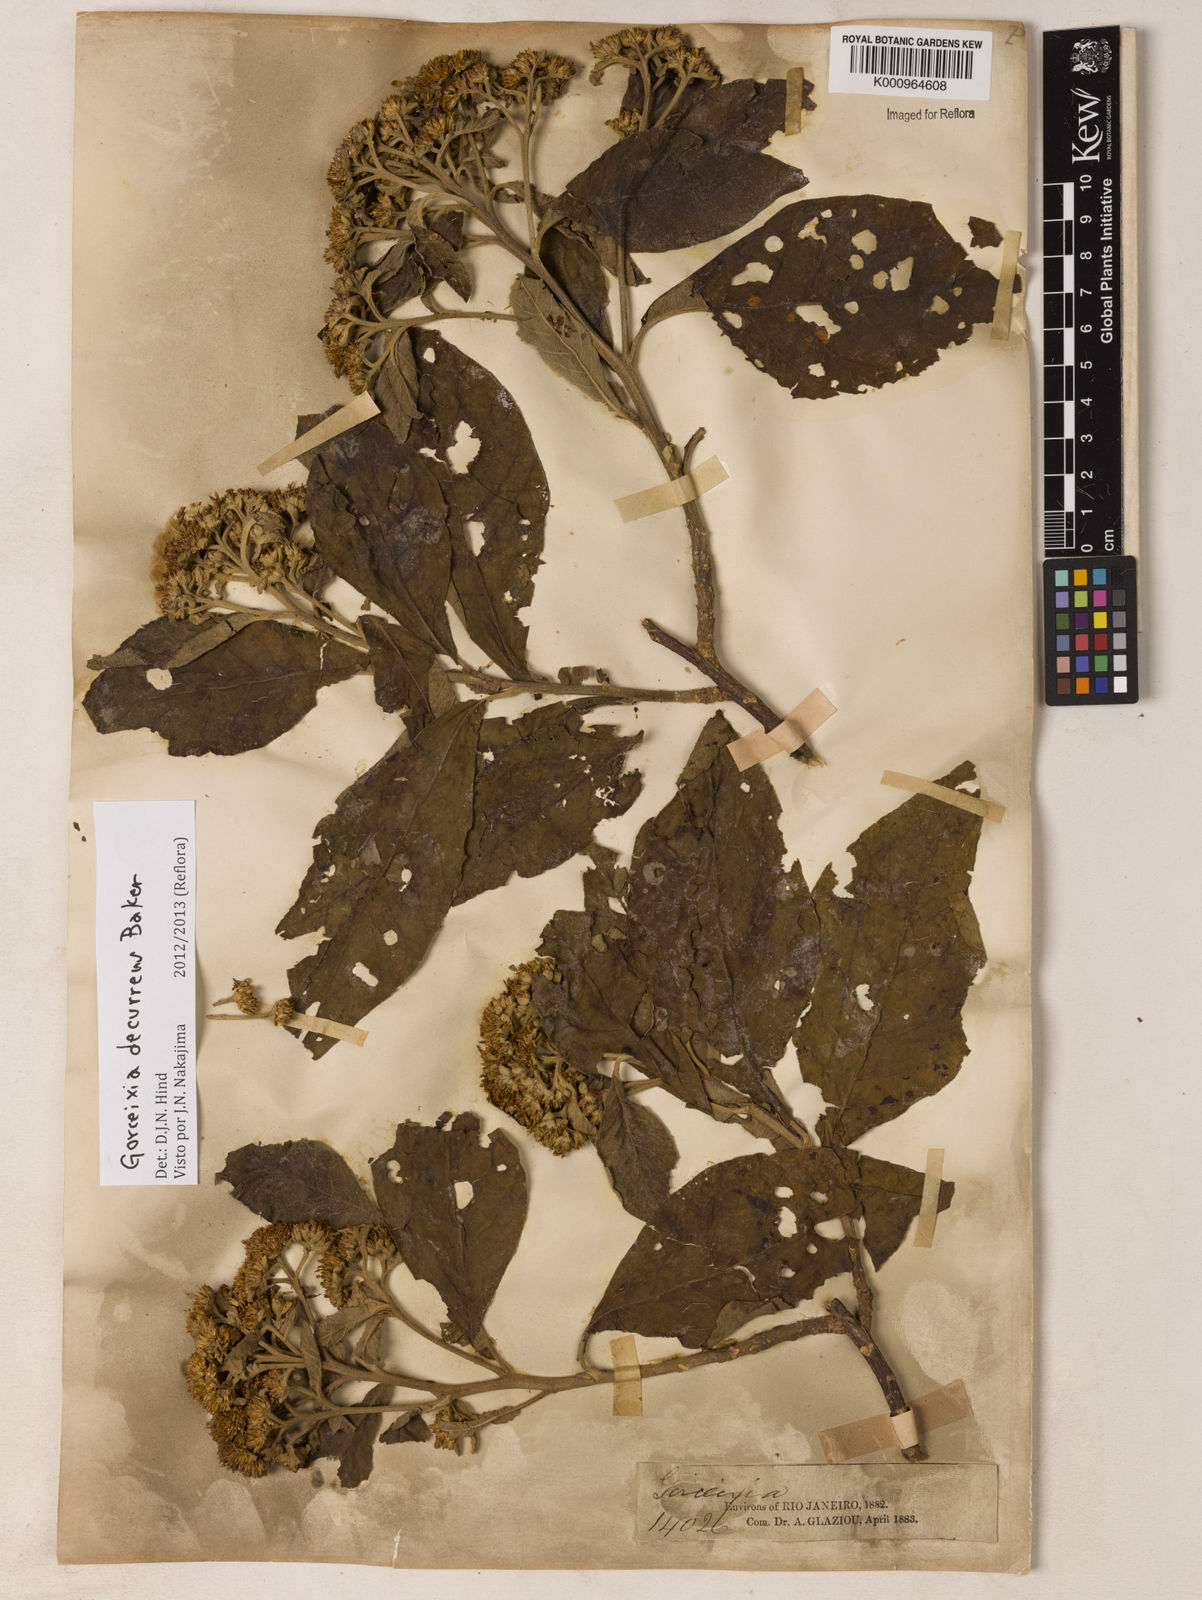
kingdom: Plantae
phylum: Tracheophyta
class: Magnoliopsida
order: Asterales
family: Asteraceae
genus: Gorceixia
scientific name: Gorceixia decurrens
